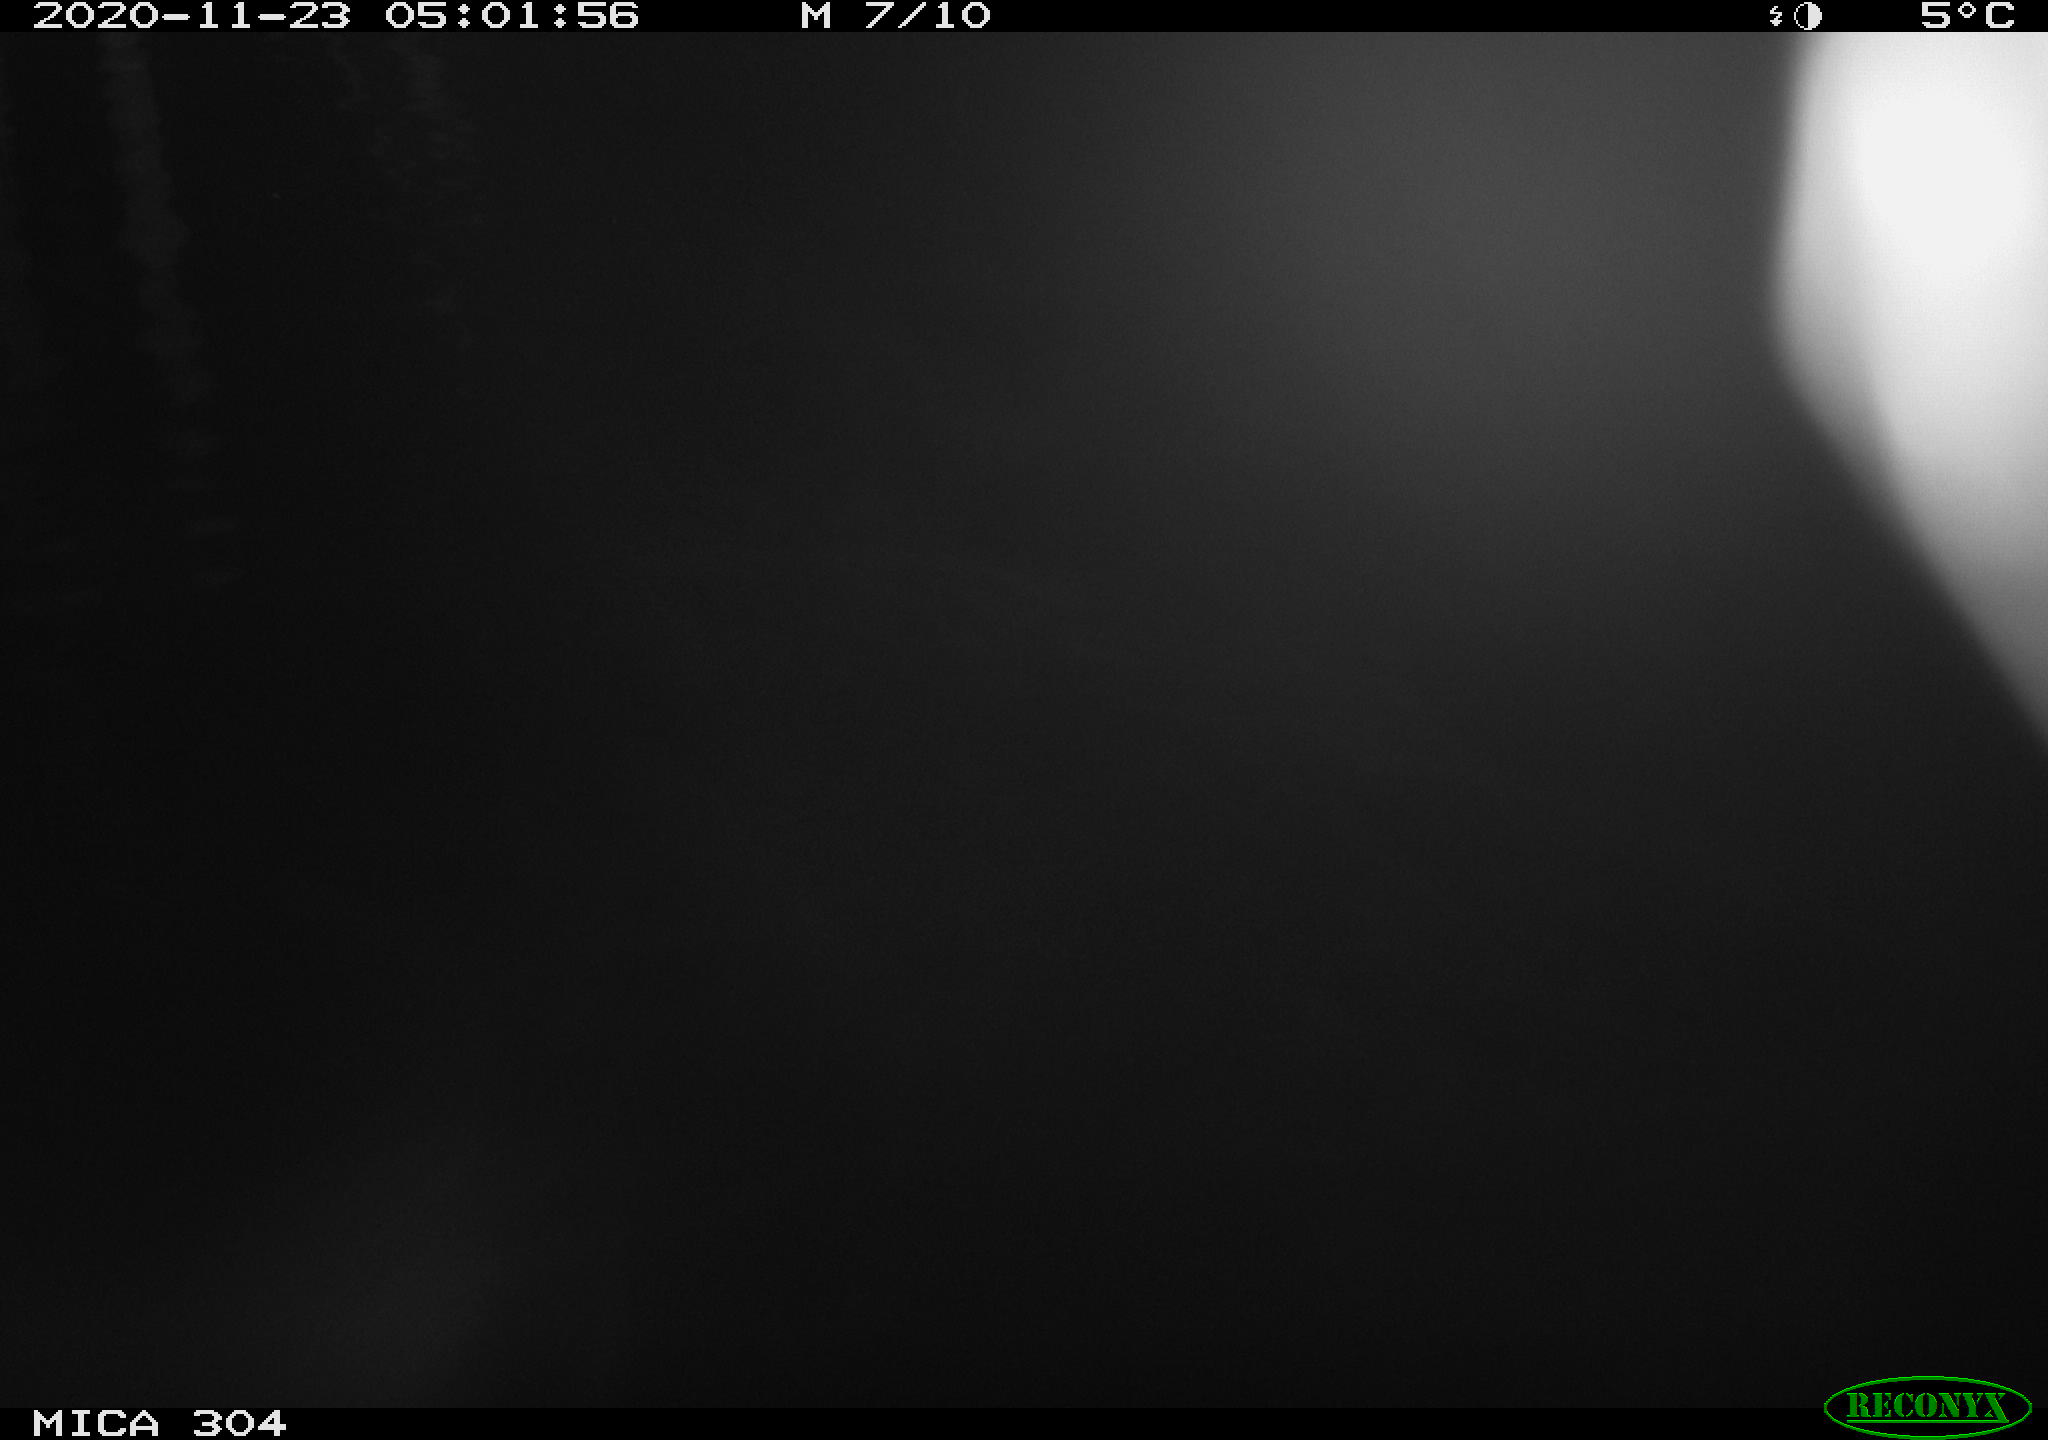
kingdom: Animalia
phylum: Chordata
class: Mammalia
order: Rodentia
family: Muridae
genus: Rattus
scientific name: Rattus norvegicus
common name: Brown rat
